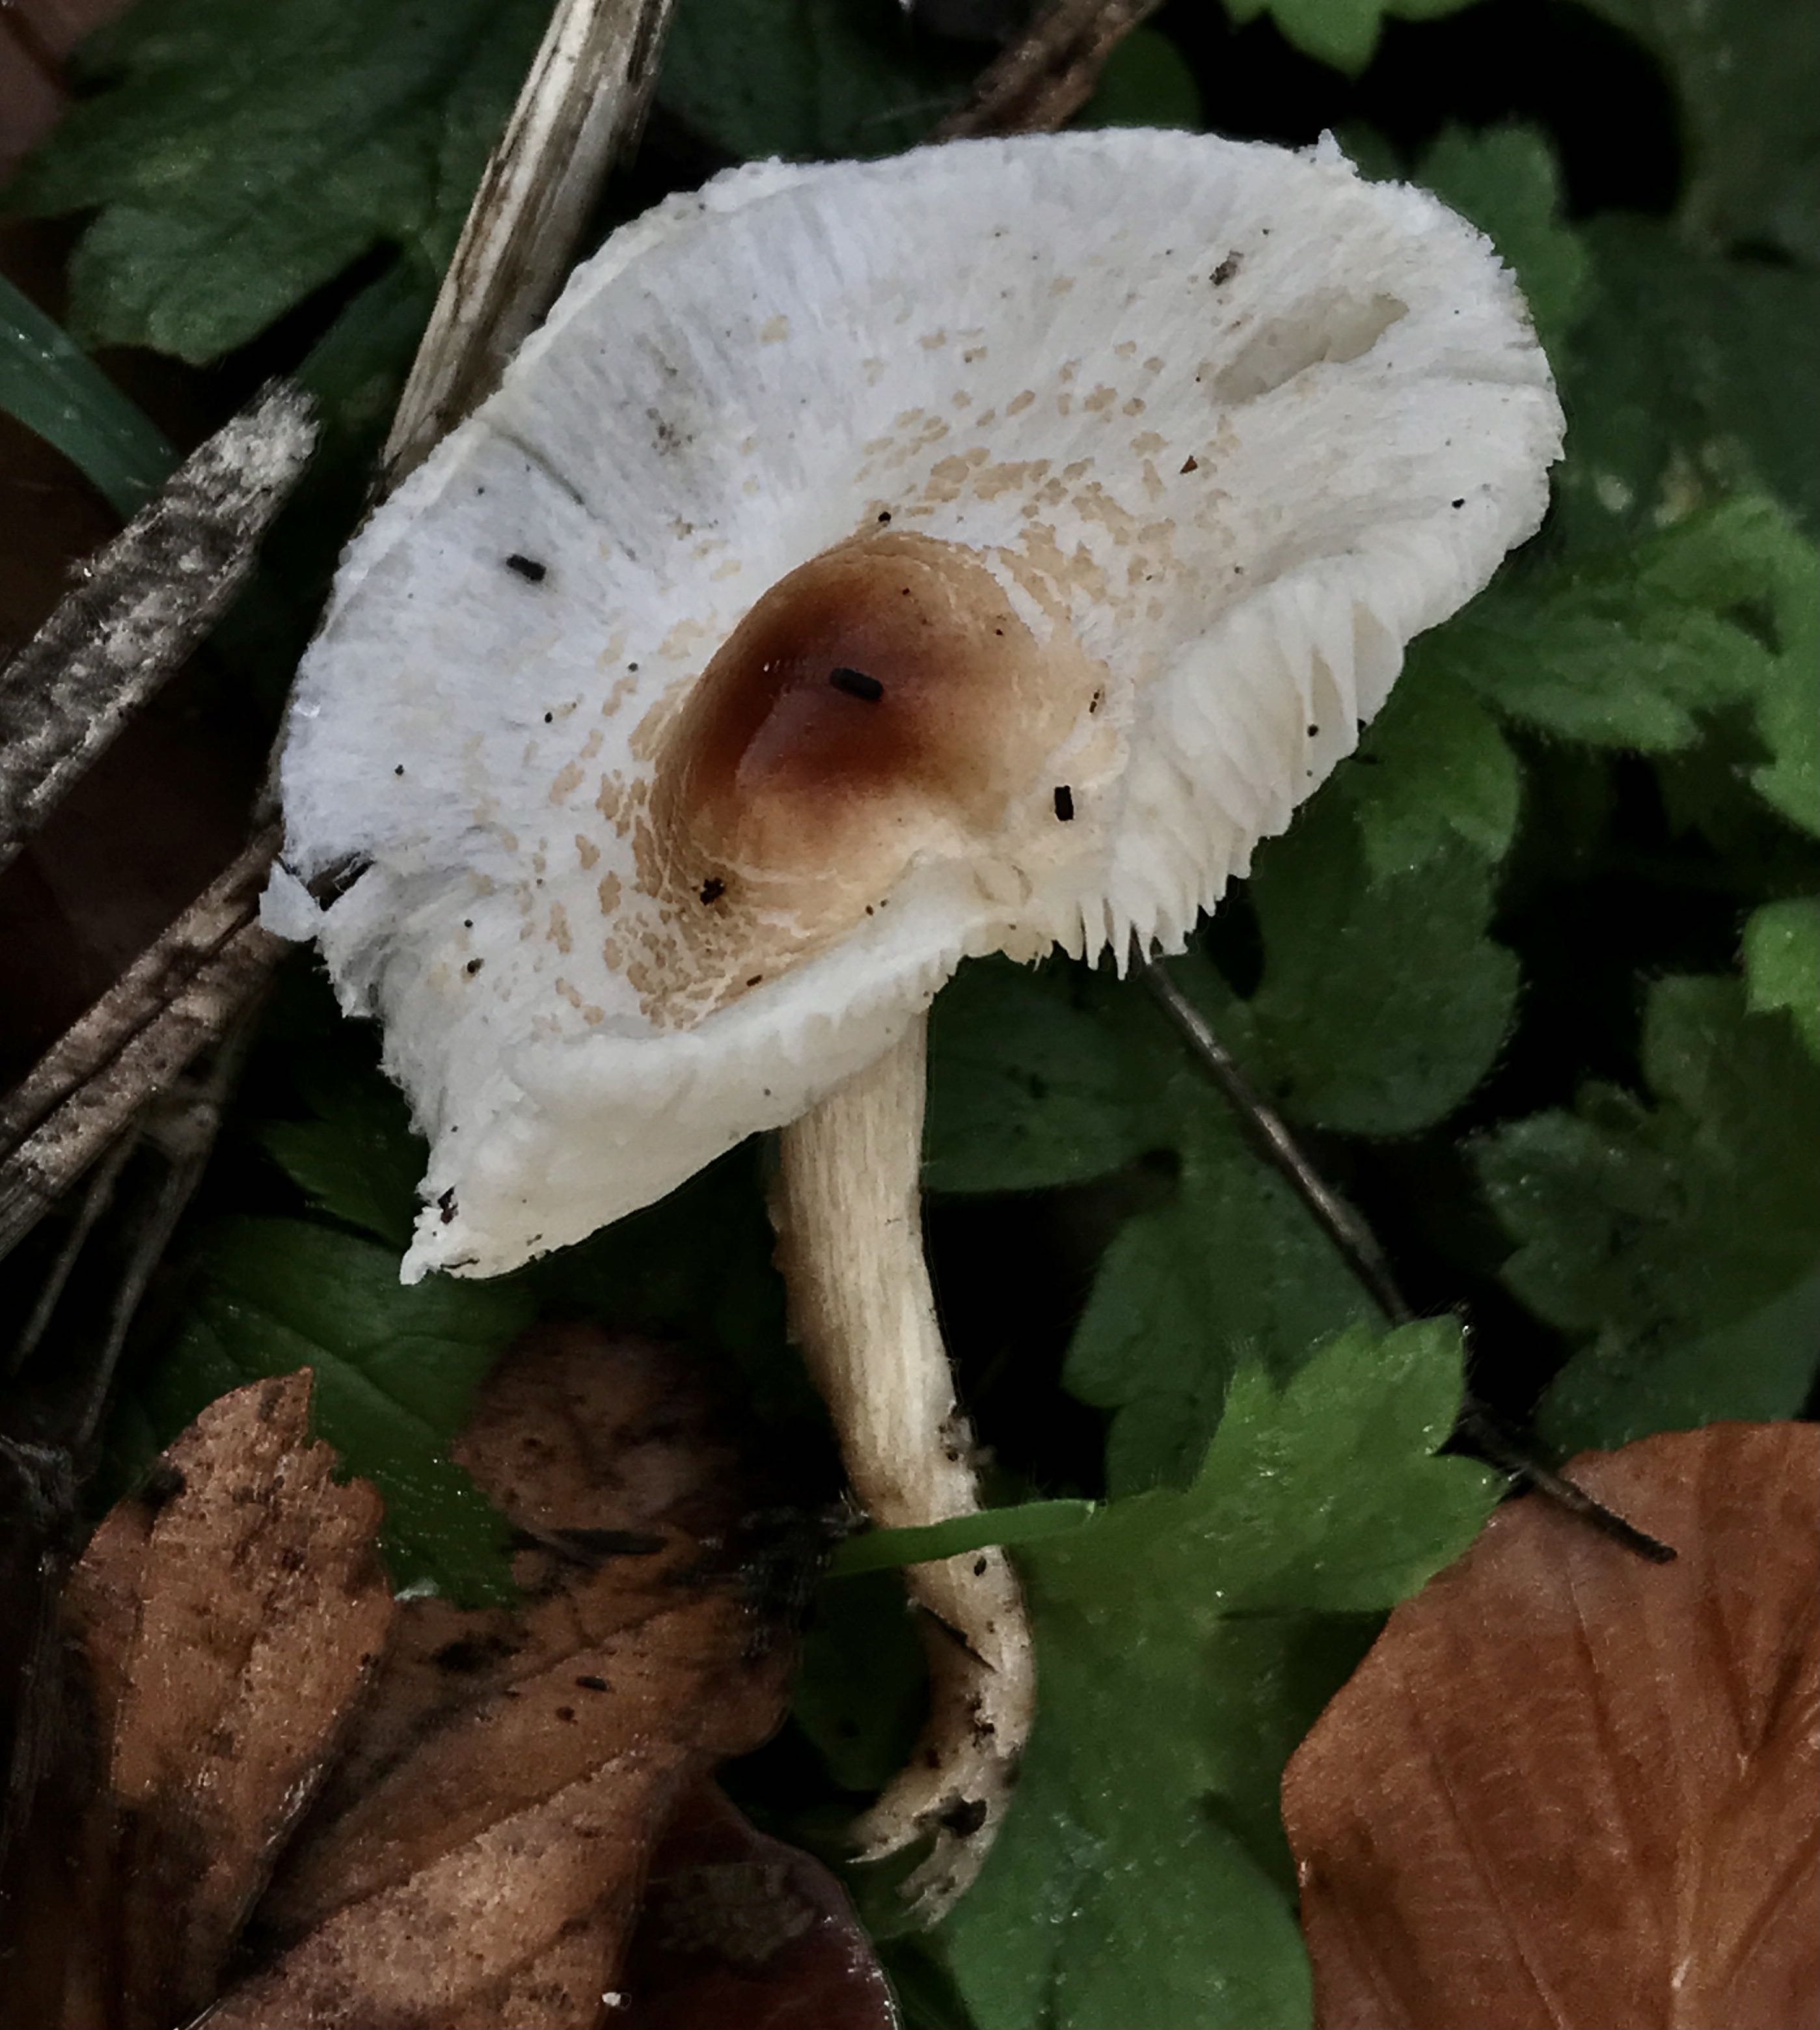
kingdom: Fungi
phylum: Basidiomycota
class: Agaricomycetes
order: Agaricales
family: Agaricaceae
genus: Lepiota
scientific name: Lepiota cristata
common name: stinkende parasolhat
